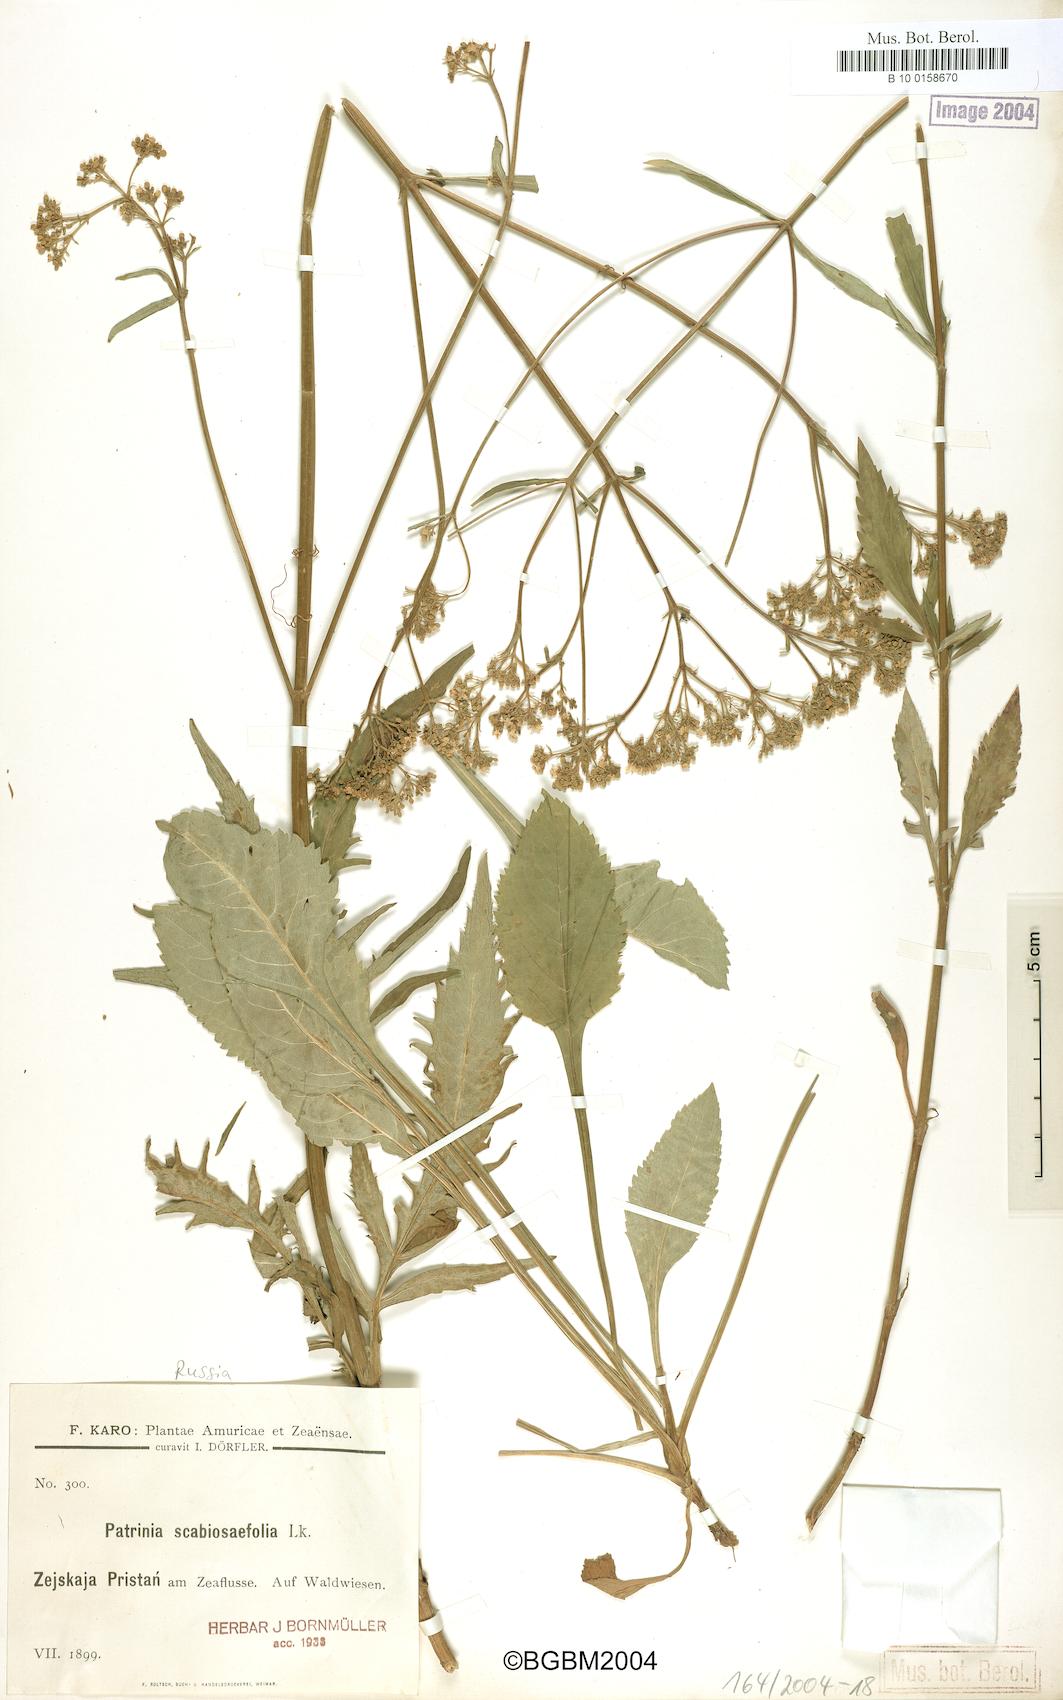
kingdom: Plantae
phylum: Tracheophyta
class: Magnoliopsida
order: Dipsacales
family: Caprifoliaceae
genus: Patrinia
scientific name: Patrinia scabiosifolia
